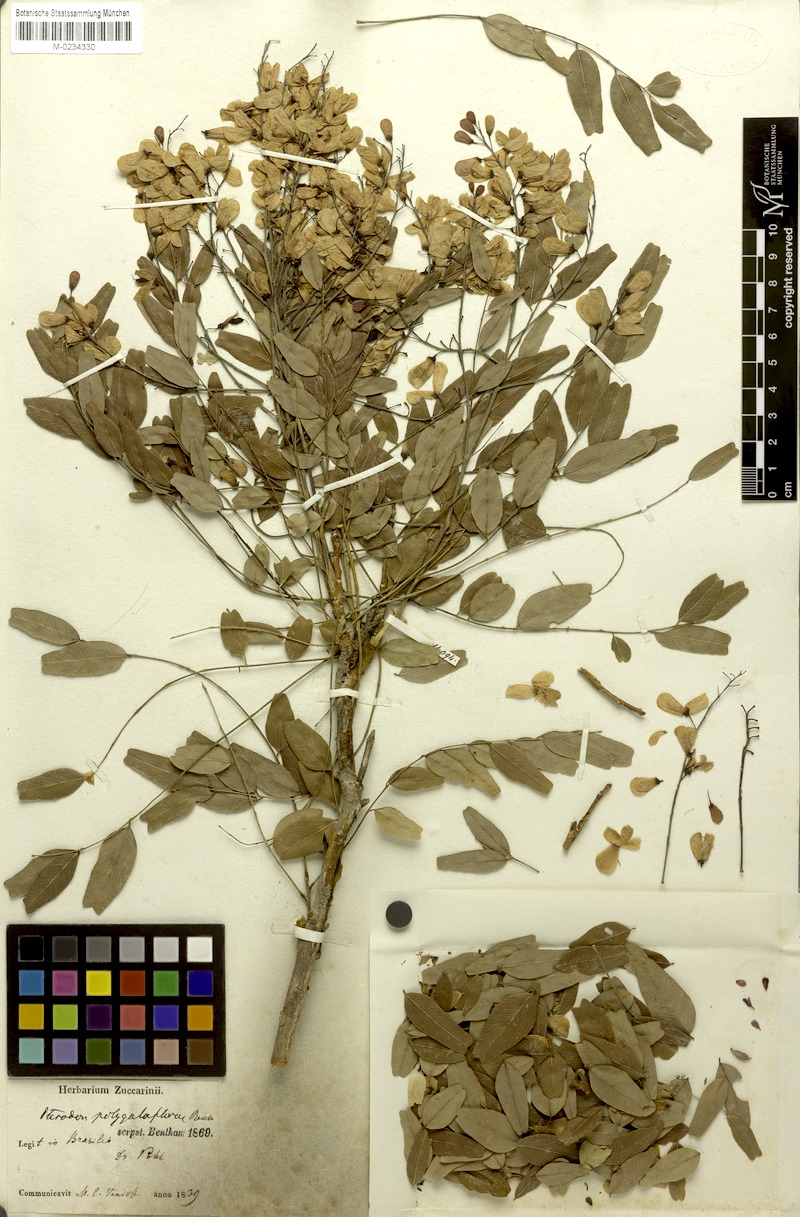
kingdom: Plantae
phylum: Tracheophyta
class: Magnoliopsida
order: Fabales
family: Fabaceae
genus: Pterodon
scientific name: Pterodon emarginatus
